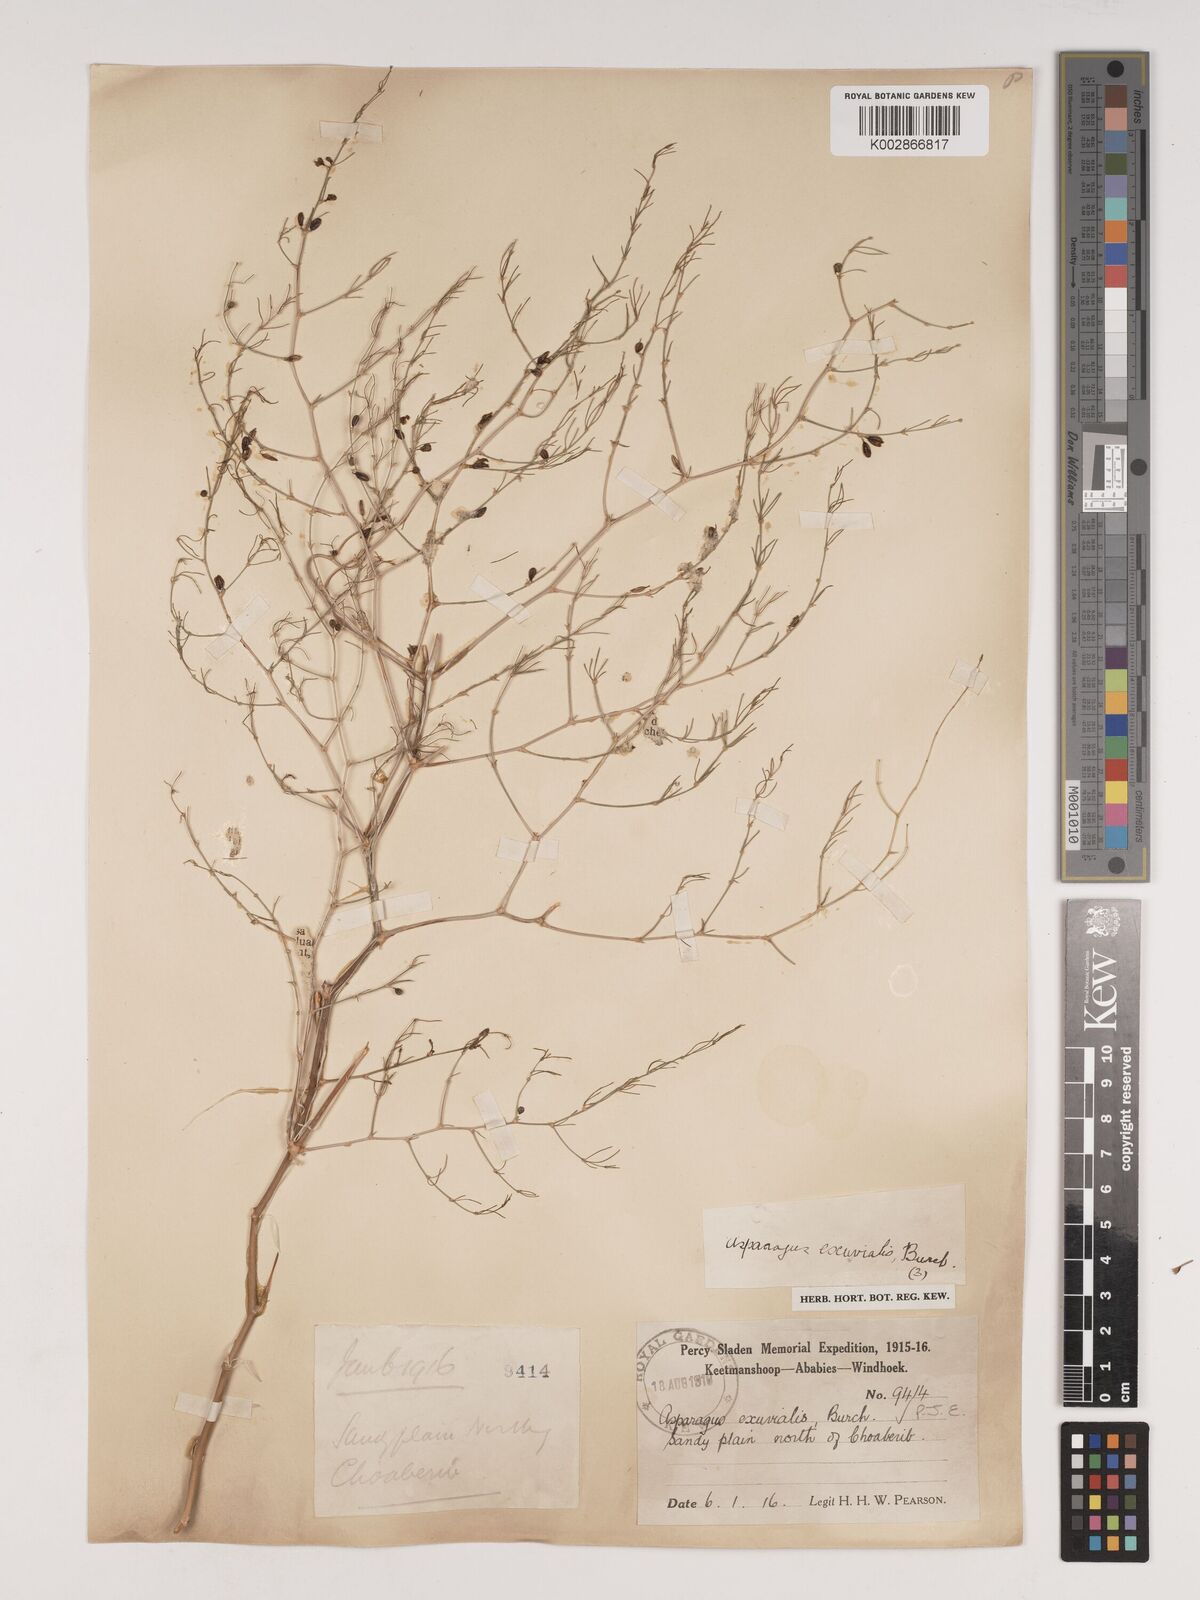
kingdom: Plantae
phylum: Tracheophyta
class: Liliopsida
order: Asparagales
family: Asparagaceae
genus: Asparagus
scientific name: Asparagus exuvialis
